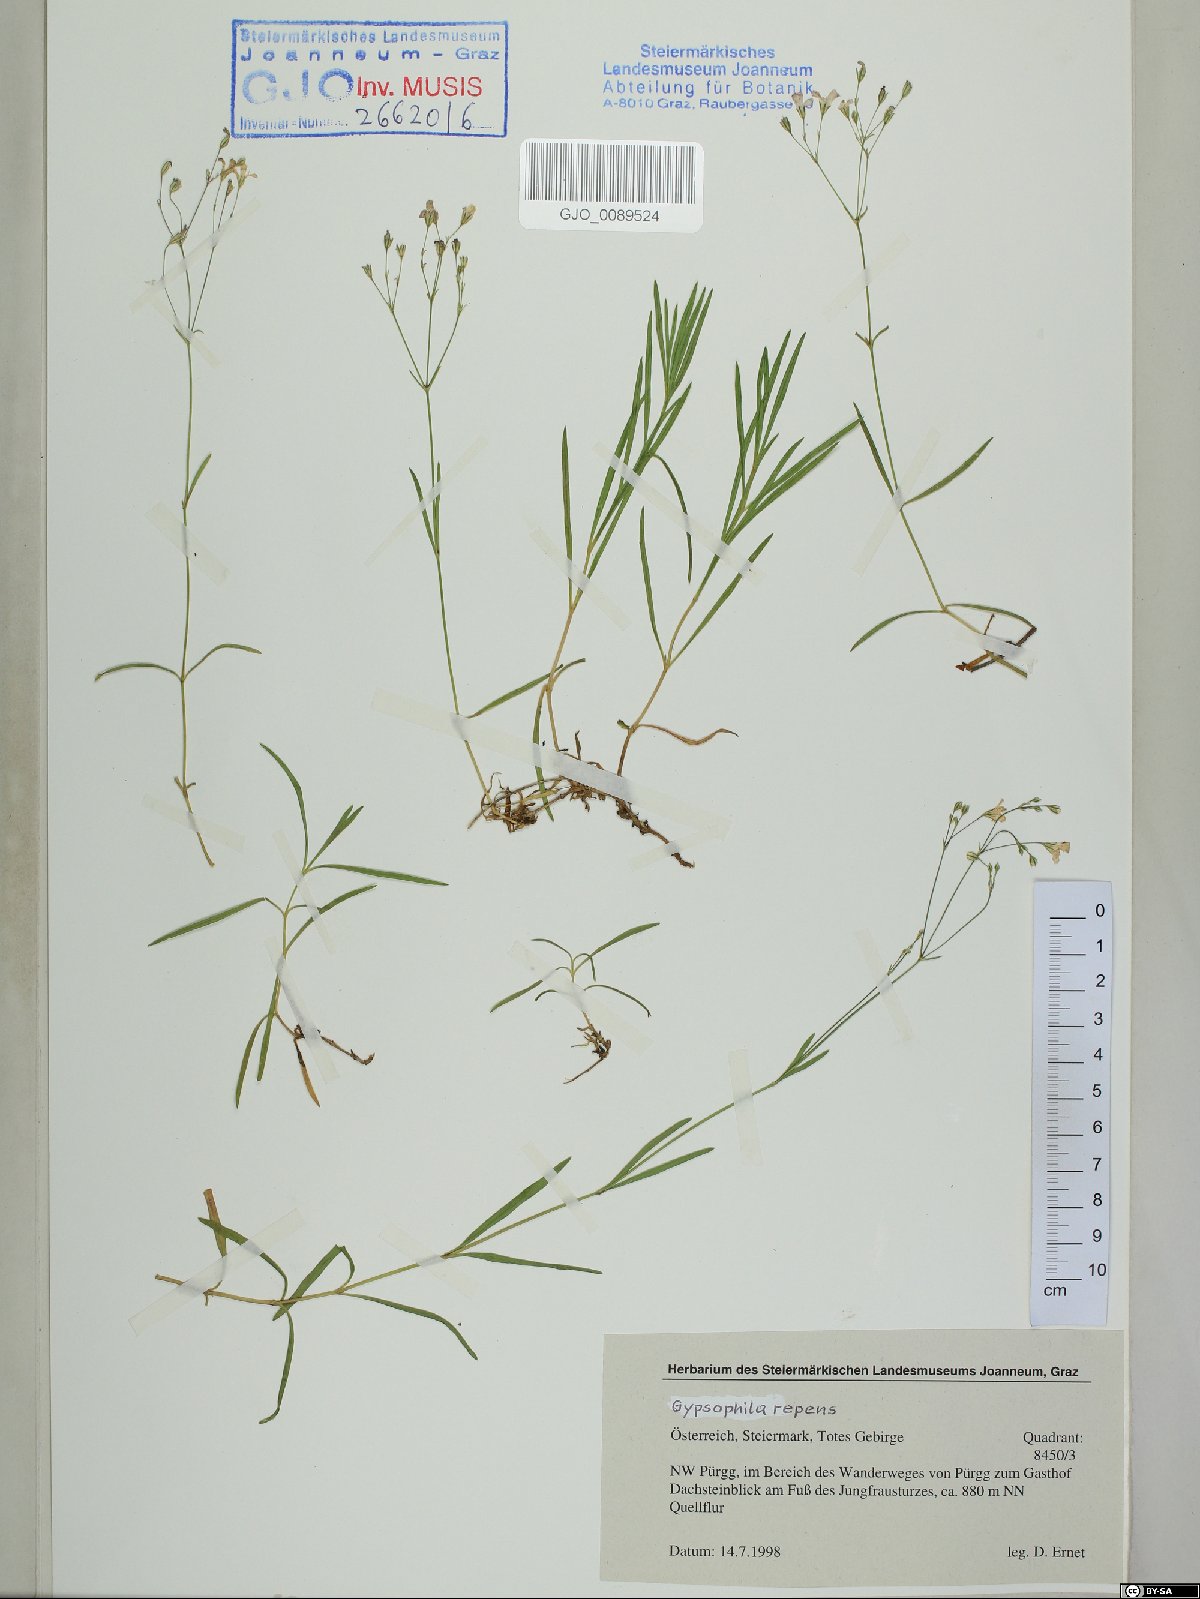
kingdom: Plantae
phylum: Tracheophyta
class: Magnoliopsida
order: Caryophyllales
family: Caryophyllaceae
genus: Gypsophila
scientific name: Gypsophila repens
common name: Creeping baby's-breath
